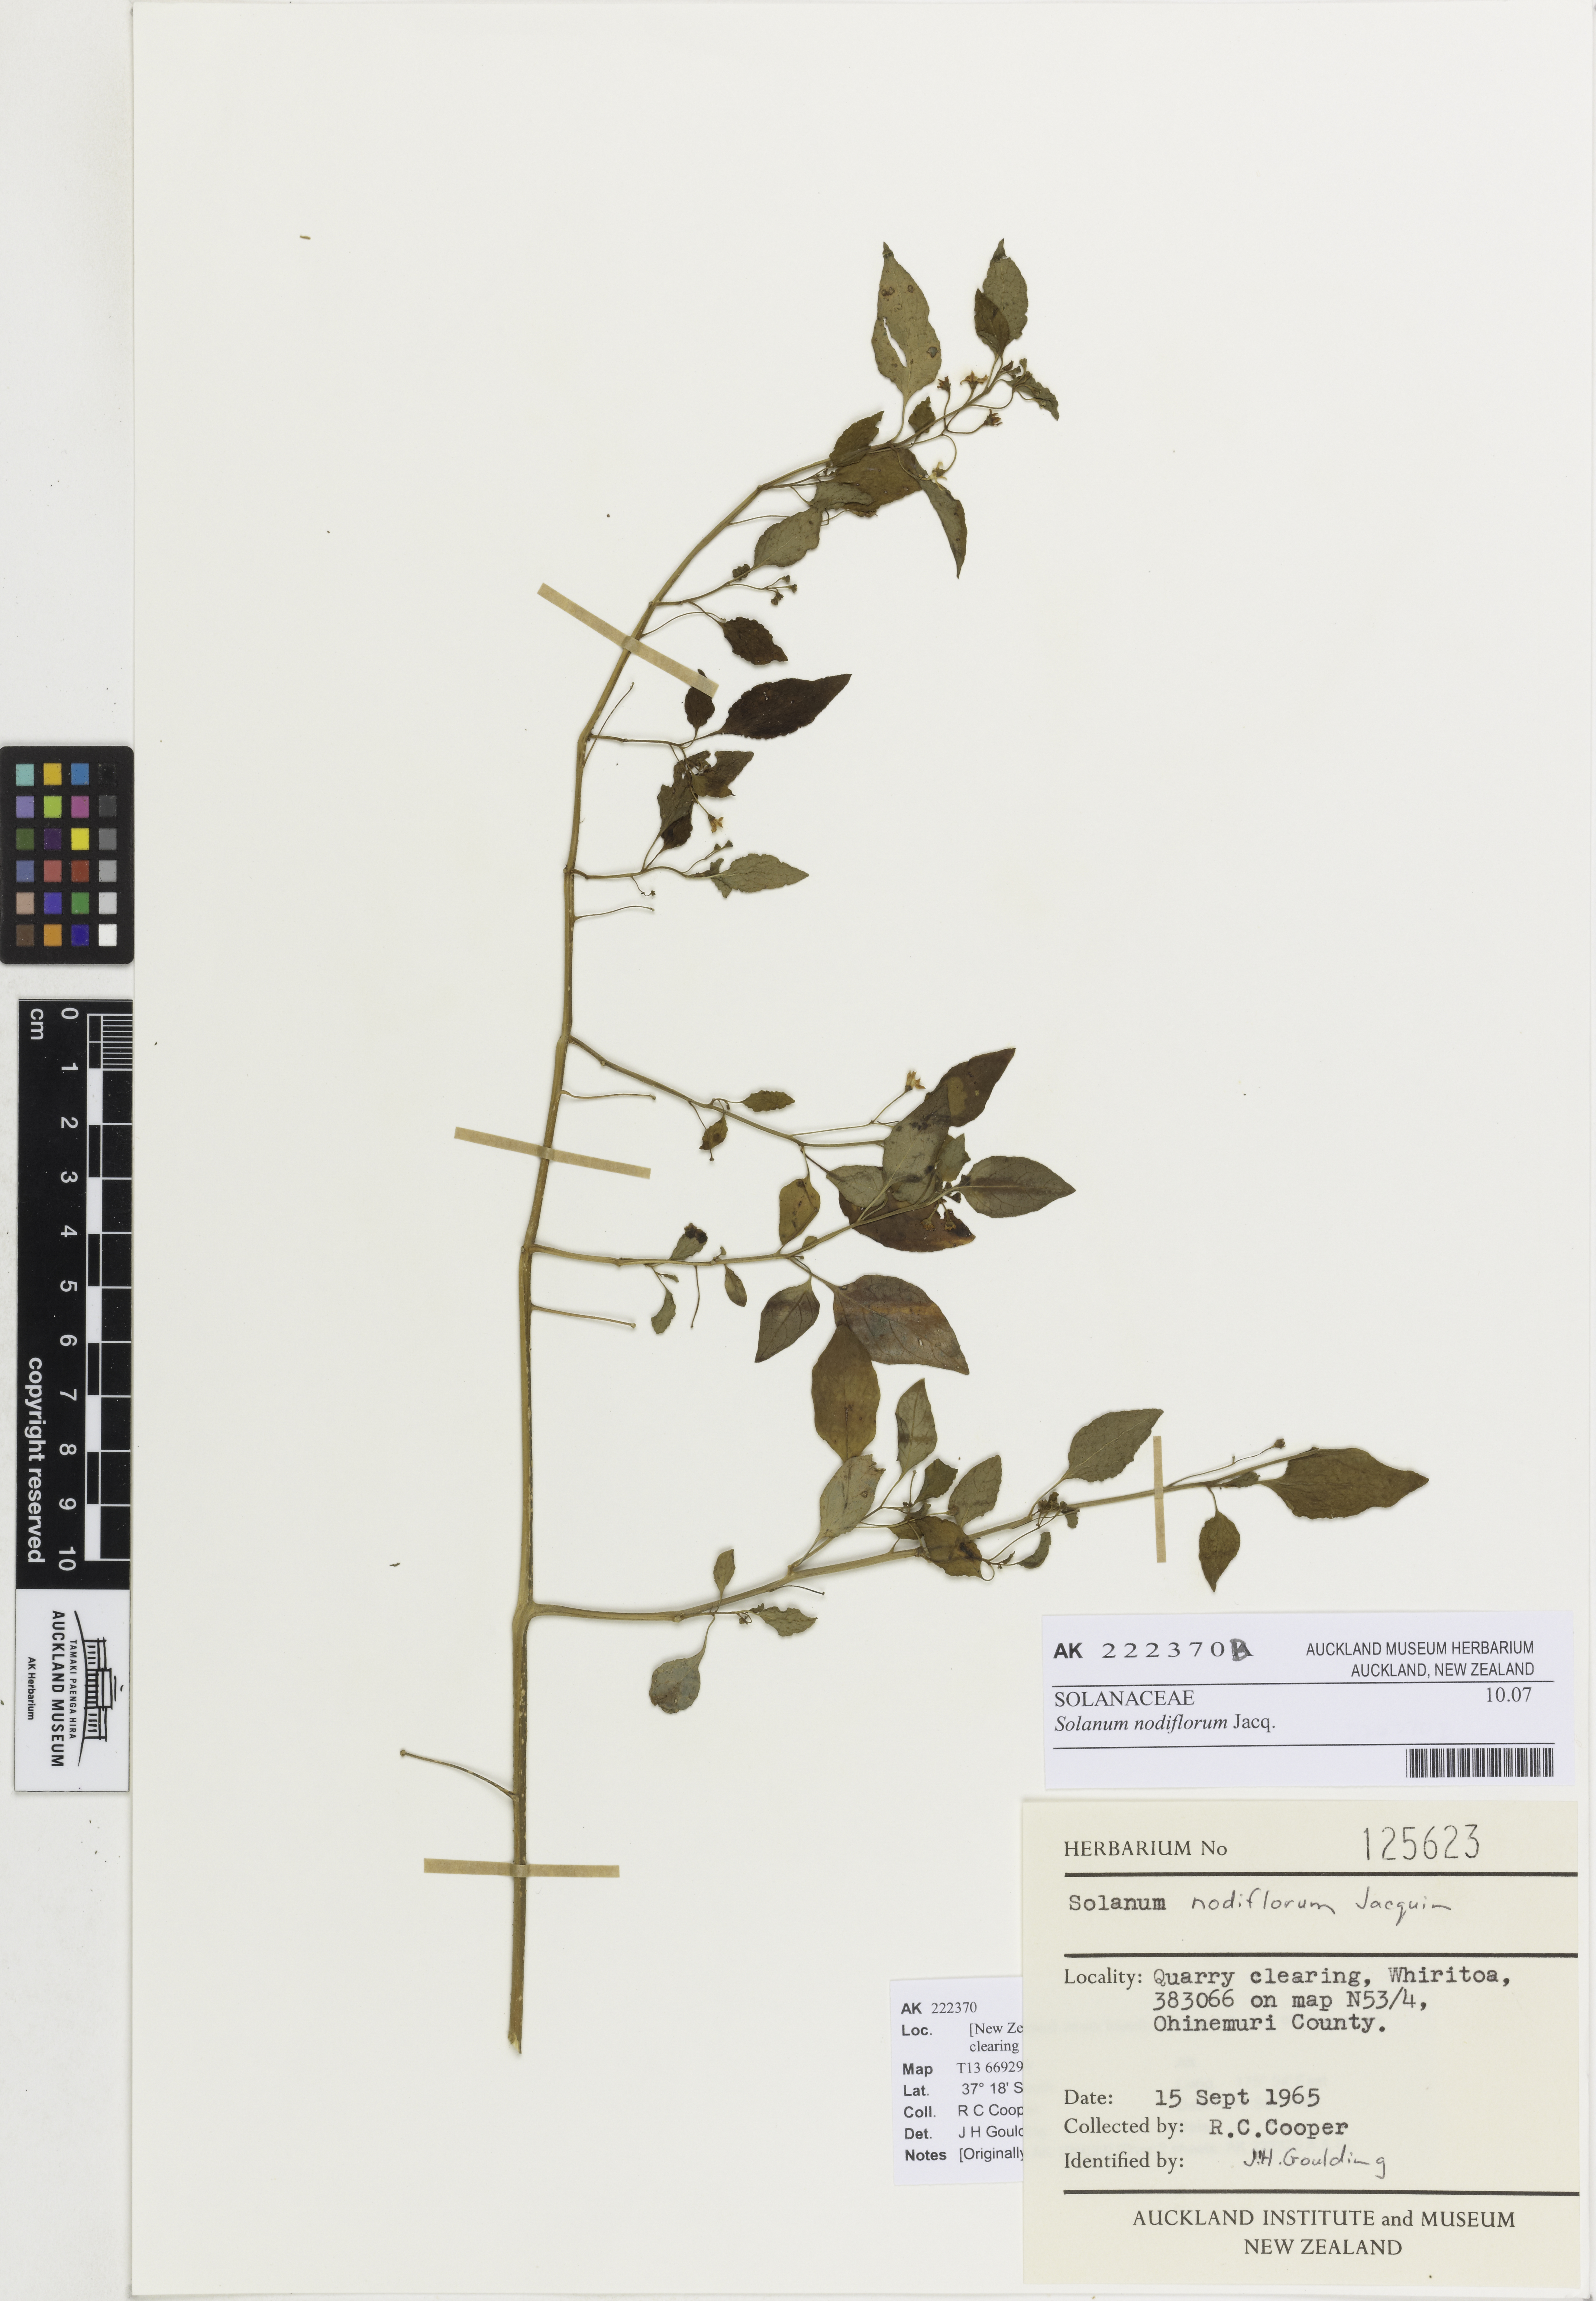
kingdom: Plantae
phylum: Tracheophyta
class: Magnoliopsida
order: Solanales
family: Solanaceae
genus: Solanum
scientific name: Solanum americanum
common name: American black nightshade
